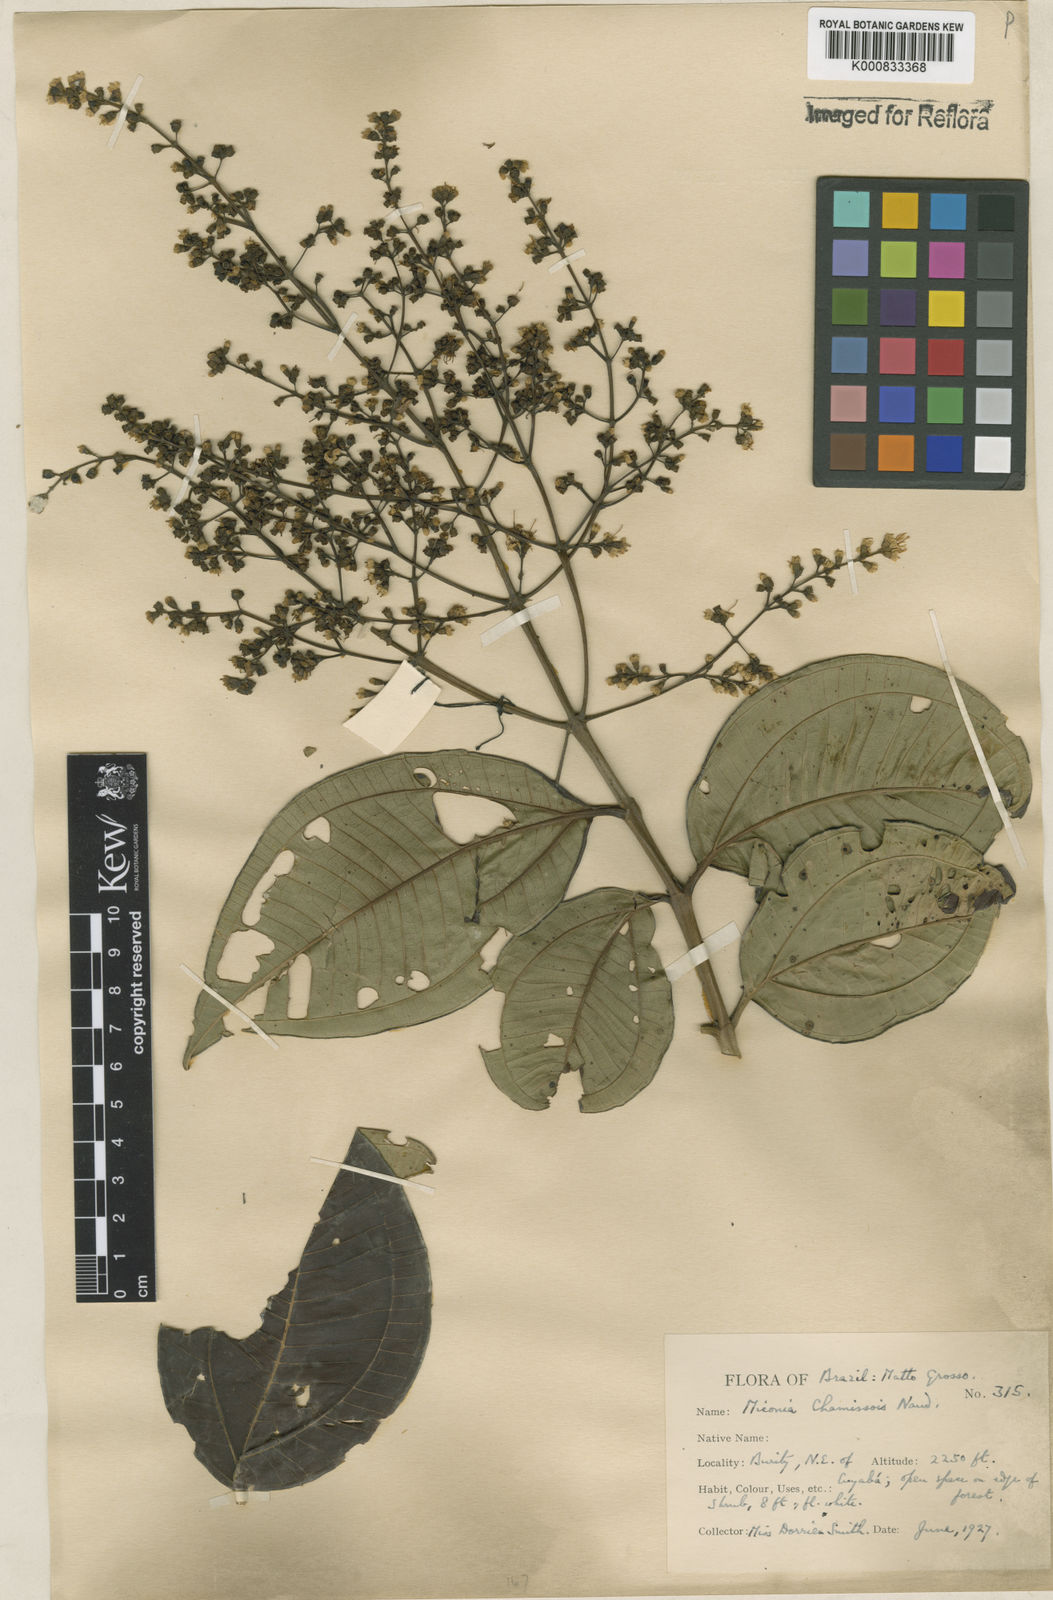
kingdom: Plantae
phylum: Tracheophyta
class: Magnoliopsida
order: Myrtales
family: Melastomataceae
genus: Miconia
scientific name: Miconia chamissois
